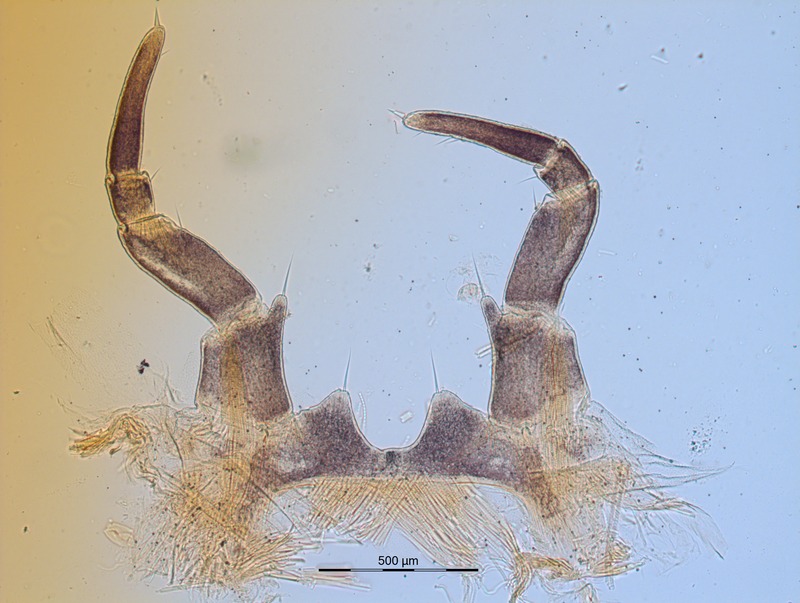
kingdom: Animalia
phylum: Arthropoda
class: Diplopoda
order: Glomerida
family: Glomeridae
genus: Glomeris
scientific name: Glomeris klugii
